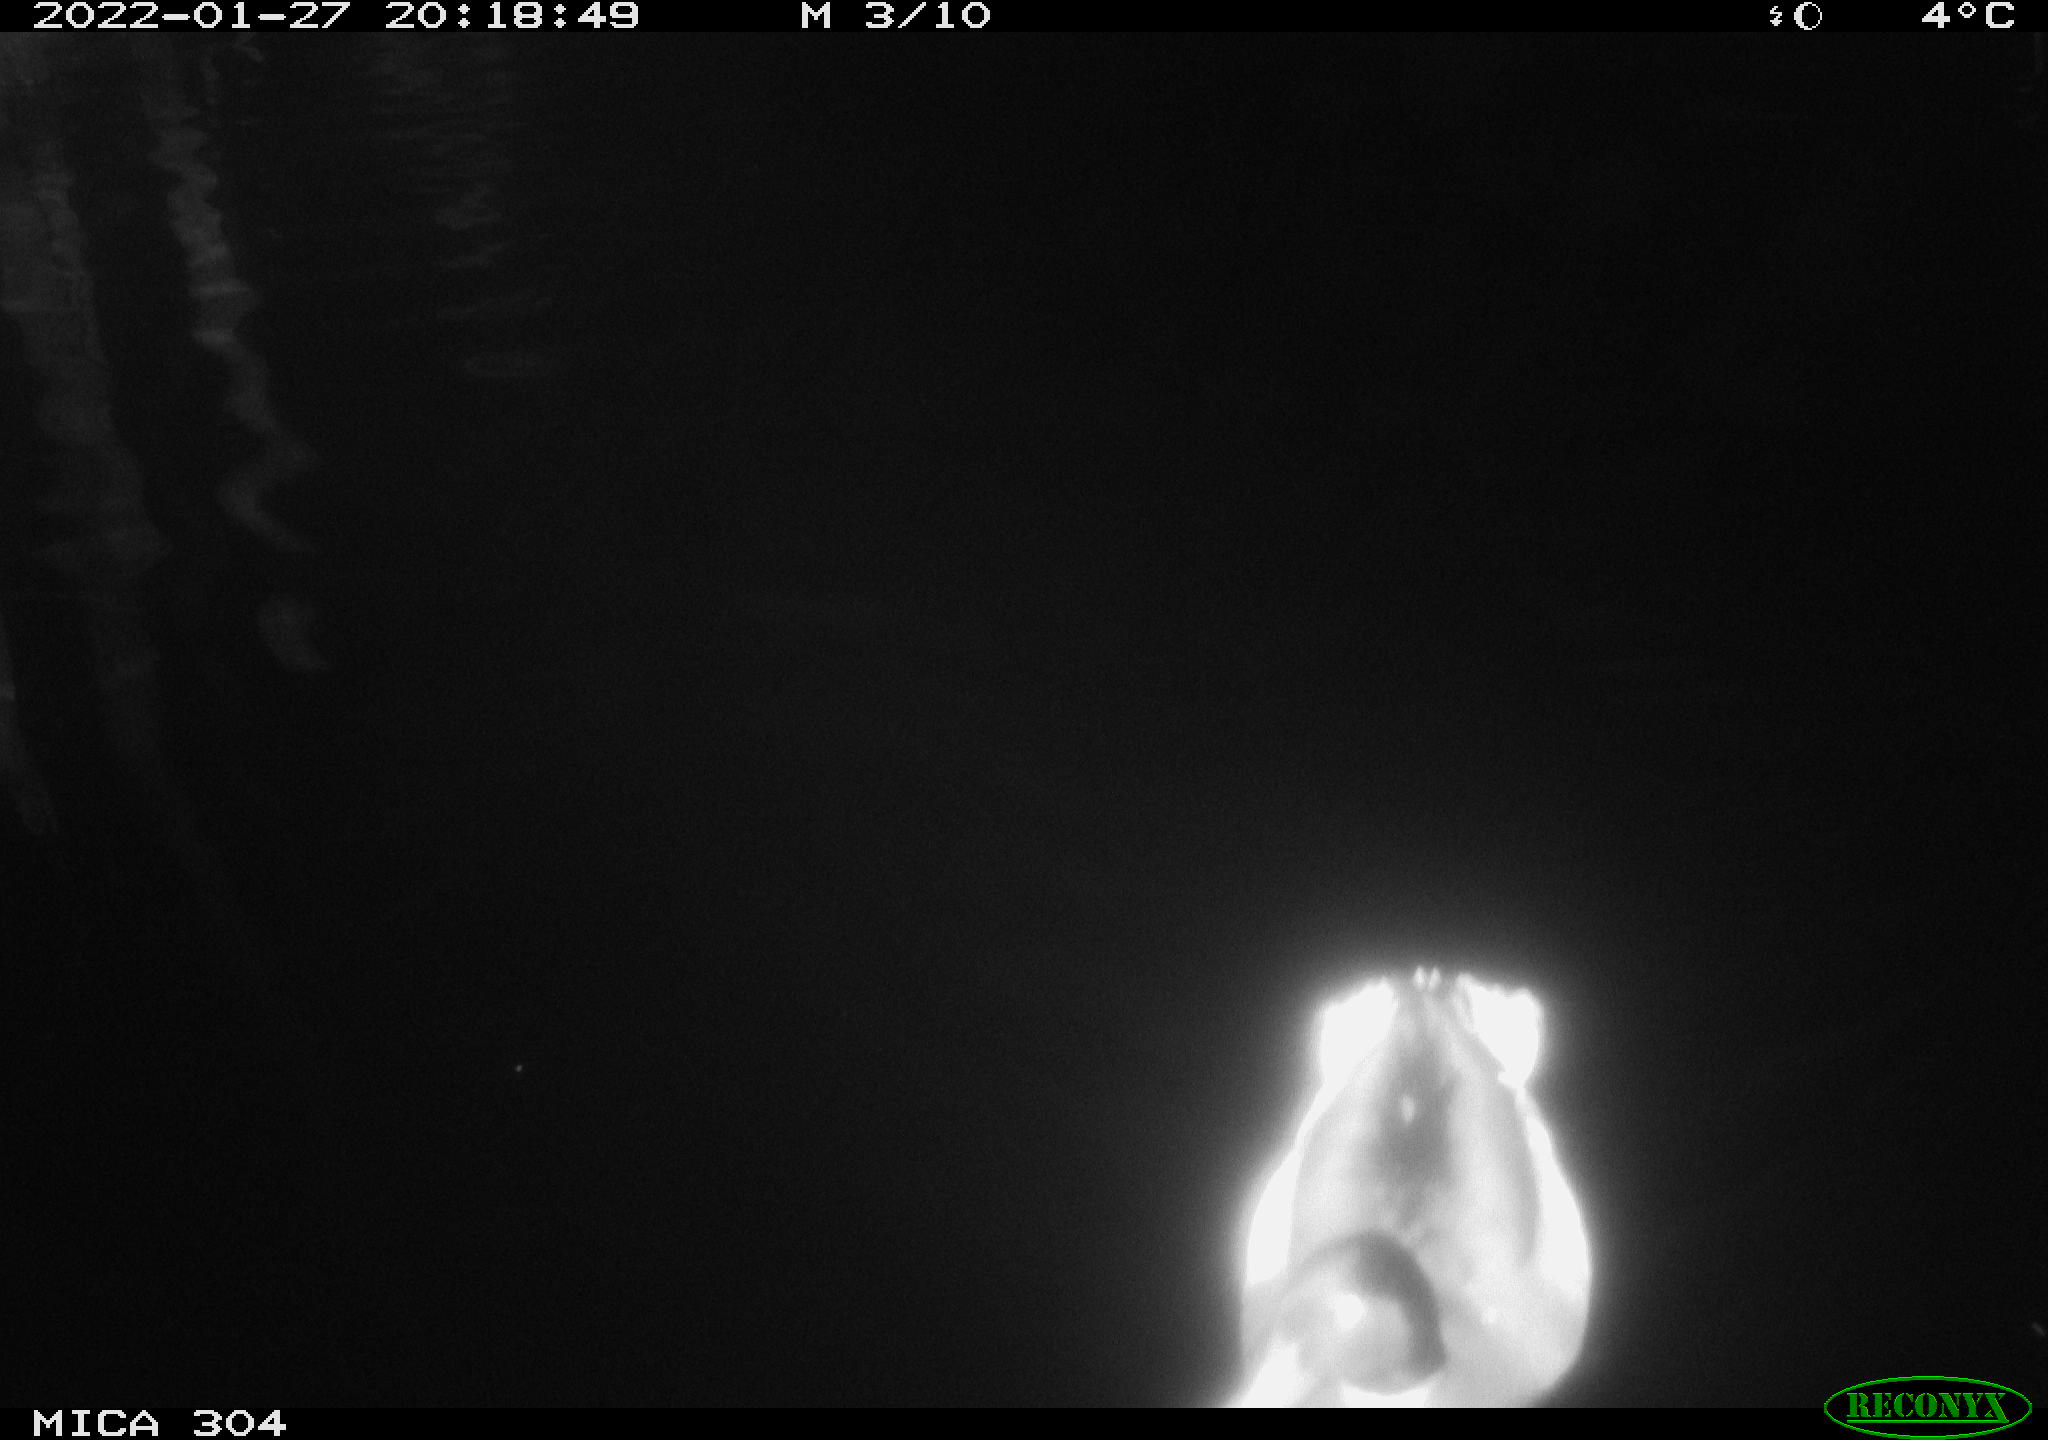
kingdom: Animalia
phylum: Chordata
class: Aves
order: Anseriformes
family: Anatidae
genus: Anas
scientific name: Anas
